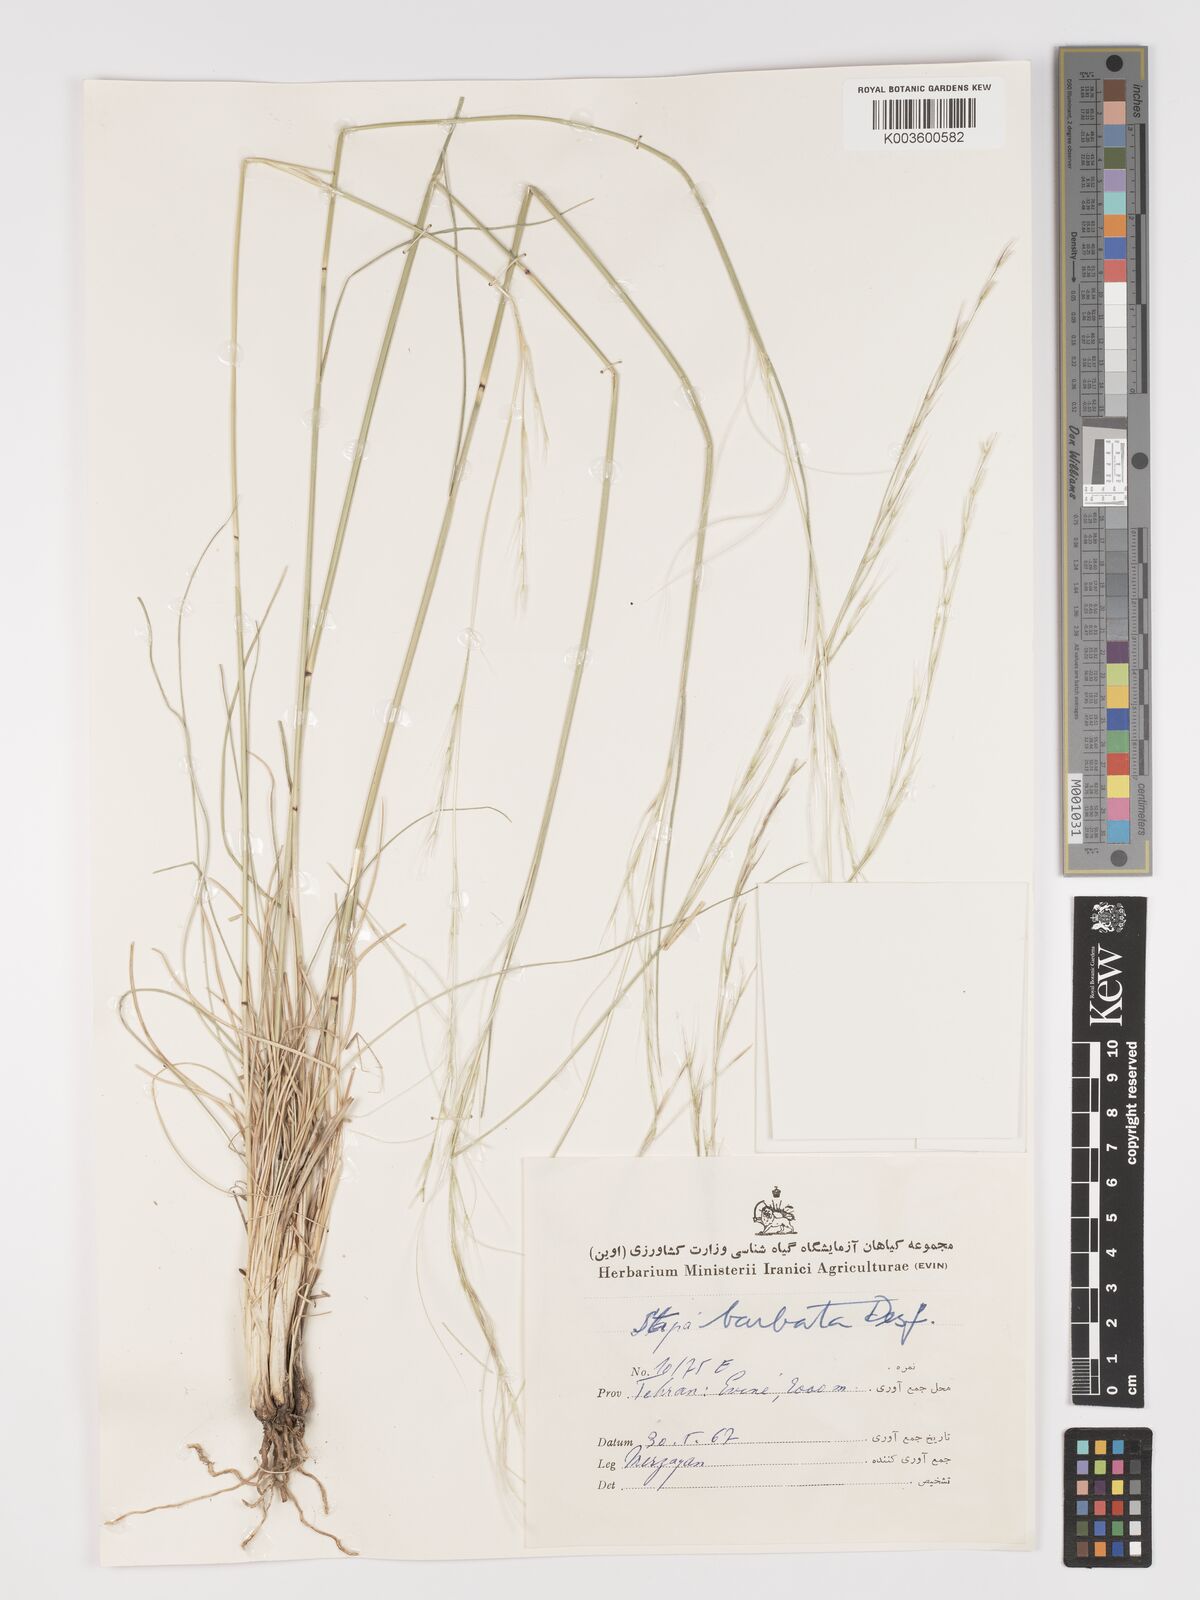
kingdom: Plantae
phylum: Tracheophyta
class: Liliopsida
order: Poales
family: Poaceae
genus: Stipa
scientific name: Stipa barbata
